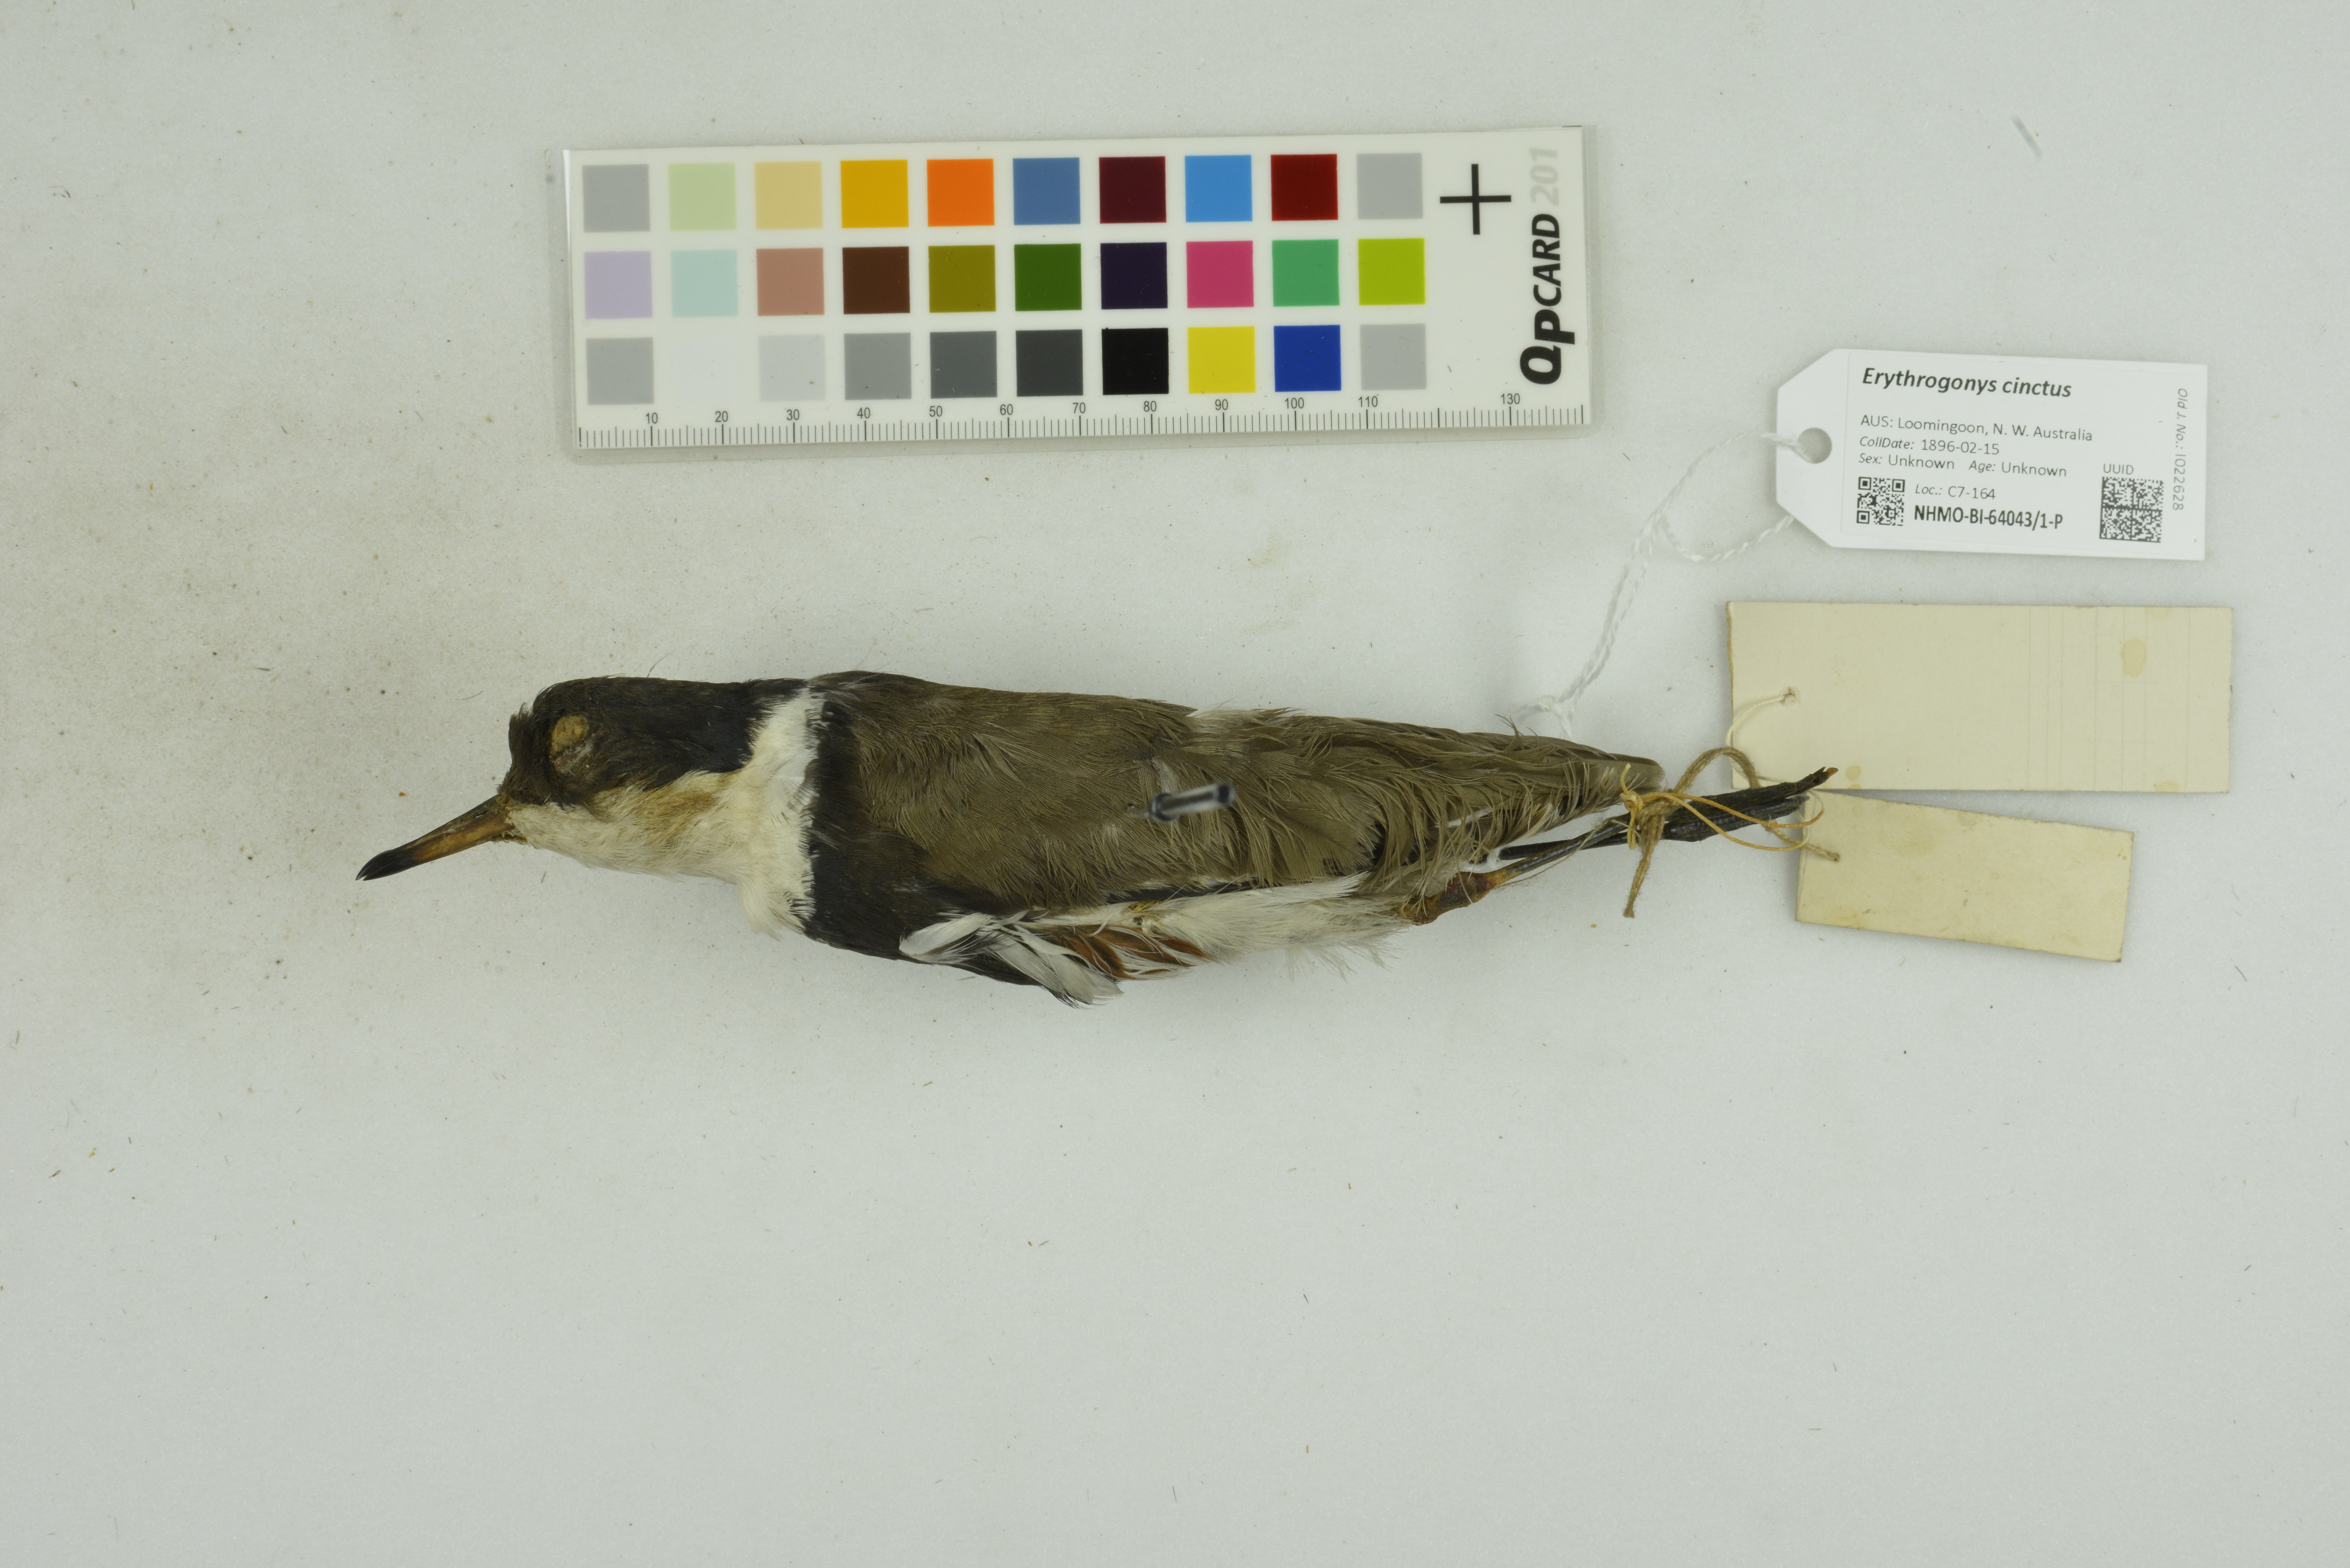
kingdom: Animalia
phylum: Chordata
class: Aves
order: Charadriiformes
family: Charadriidae
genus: Erythrogonys
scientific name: Erythrogonys cinctus
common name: Red-kneed dotterel
